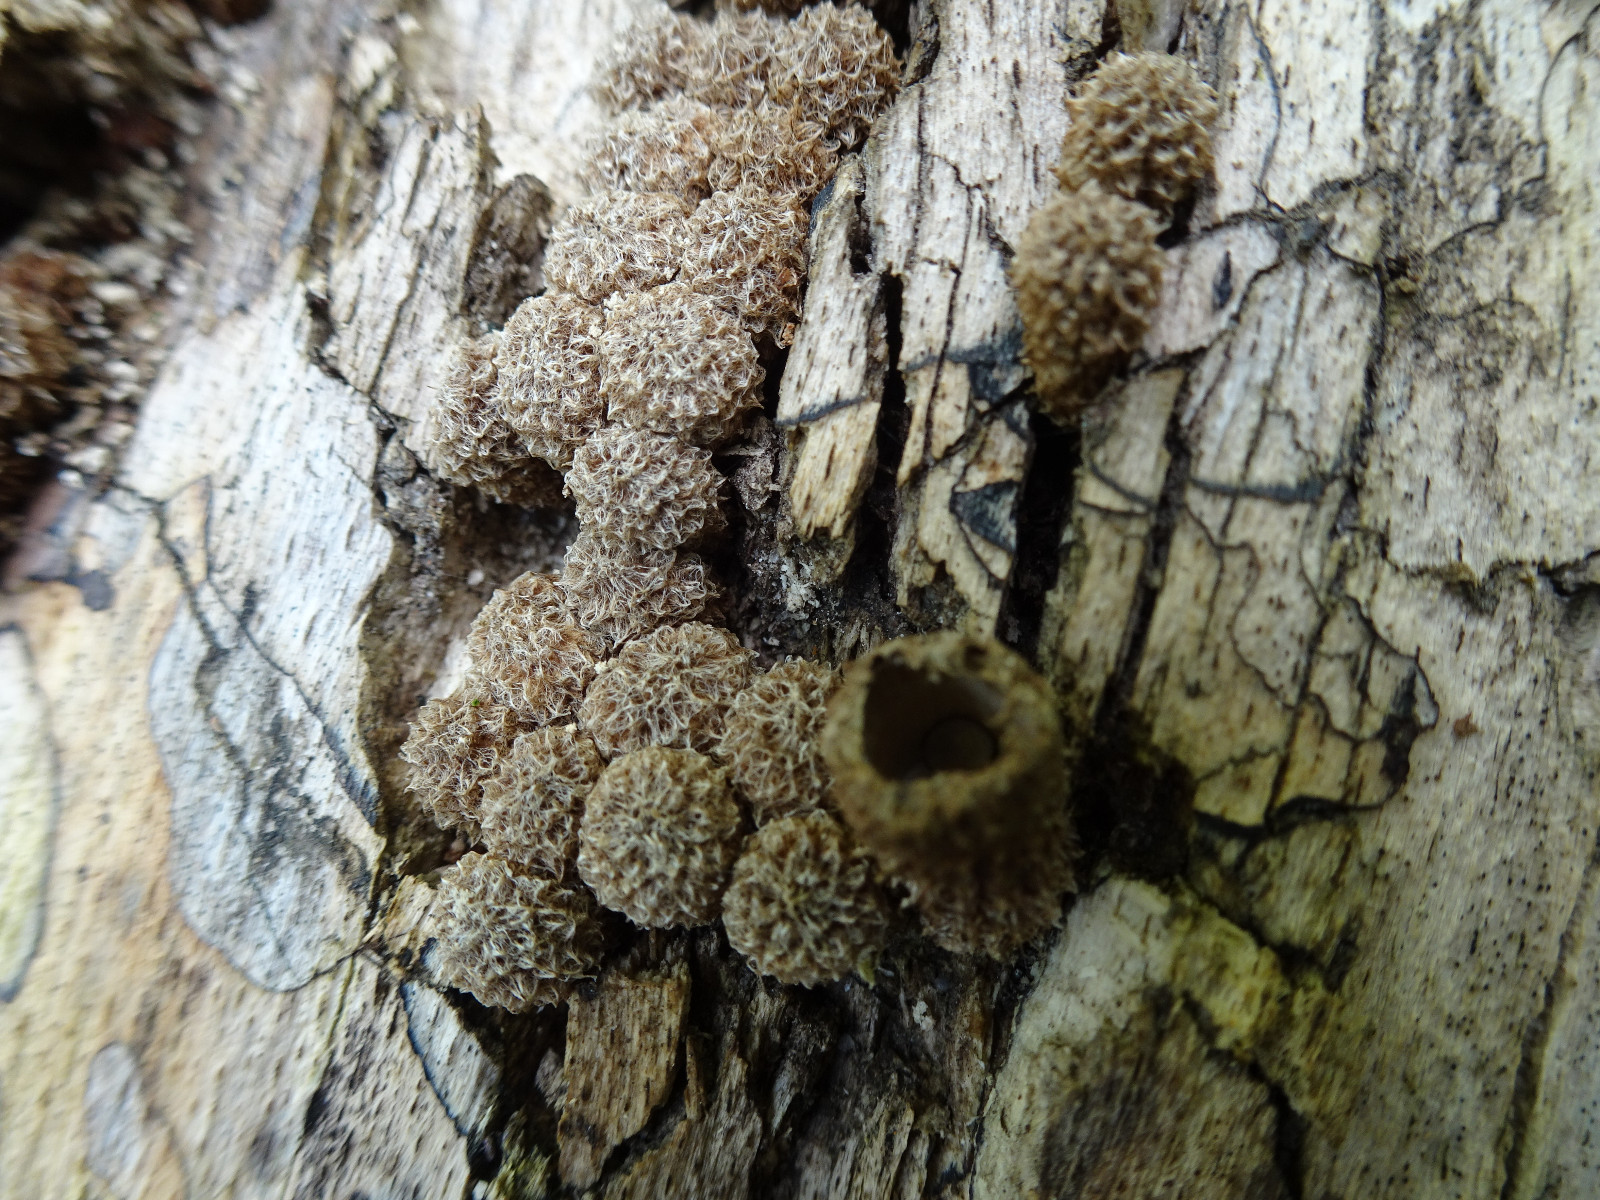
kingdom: Fungi
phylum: Basidiomycota
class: Agaricomycetes
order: Agaricales
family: Agaricaceae
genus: Cyathus
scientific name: Cyathus striatus
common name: stribet redesvamp
